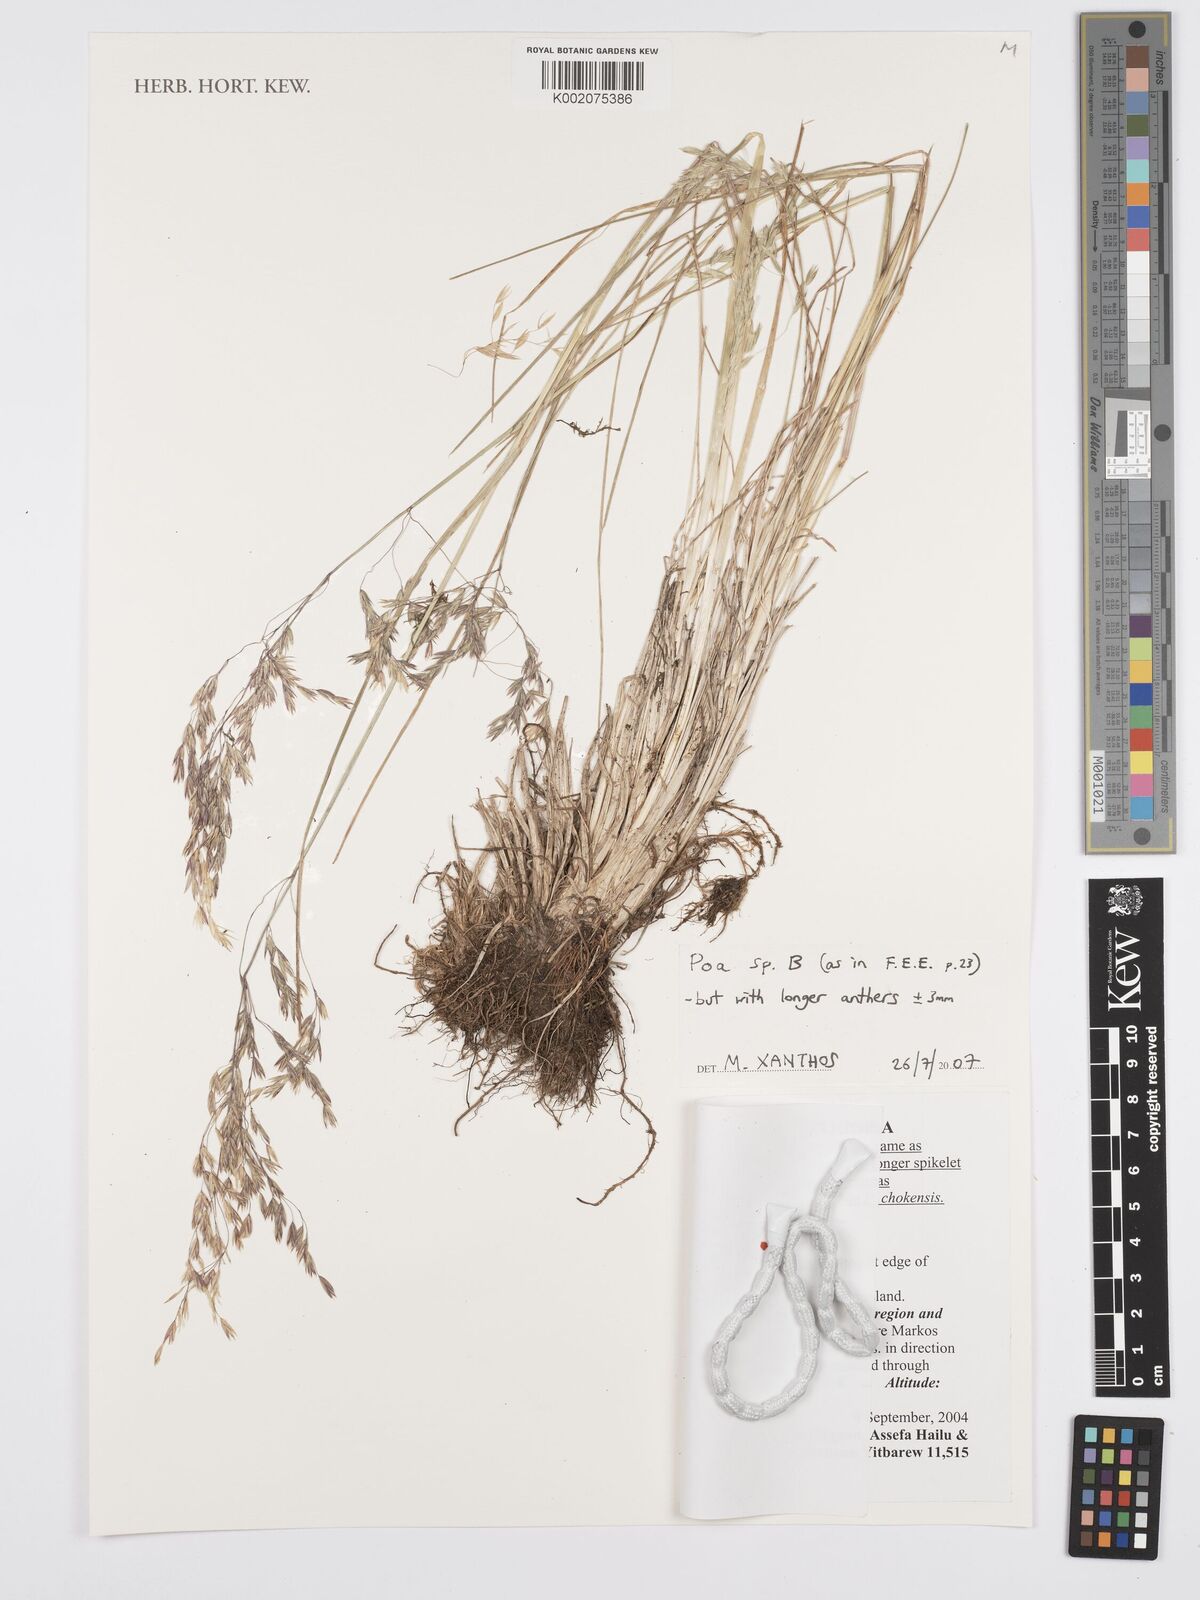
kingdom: Plantae
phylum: Tracheophyta
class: Liliopsida
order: Poales
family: Poaceae
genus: Poa
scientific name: Poa
